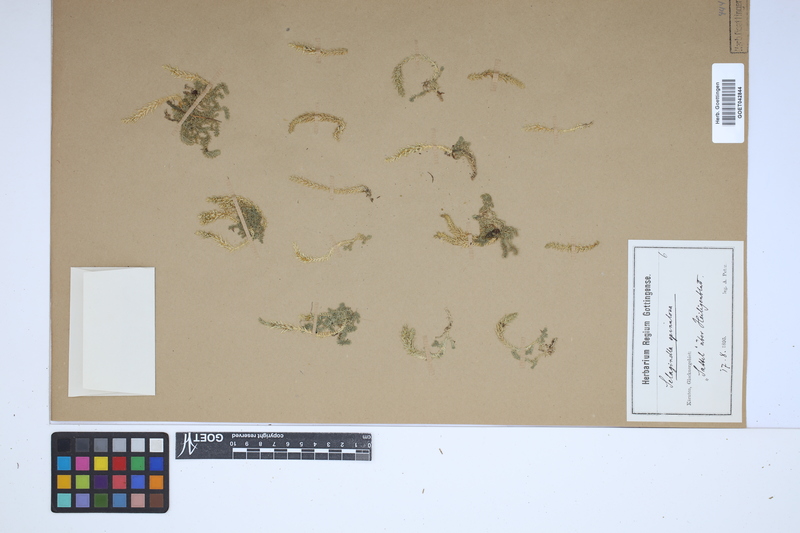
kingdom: Plantae
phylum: Tracheophyta
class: Lycopodiopsida
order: Selaginellales
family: Selaginellaceae
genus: Selaginella
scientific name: Selaginella selaginoides
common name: Prickly mountain-moss
